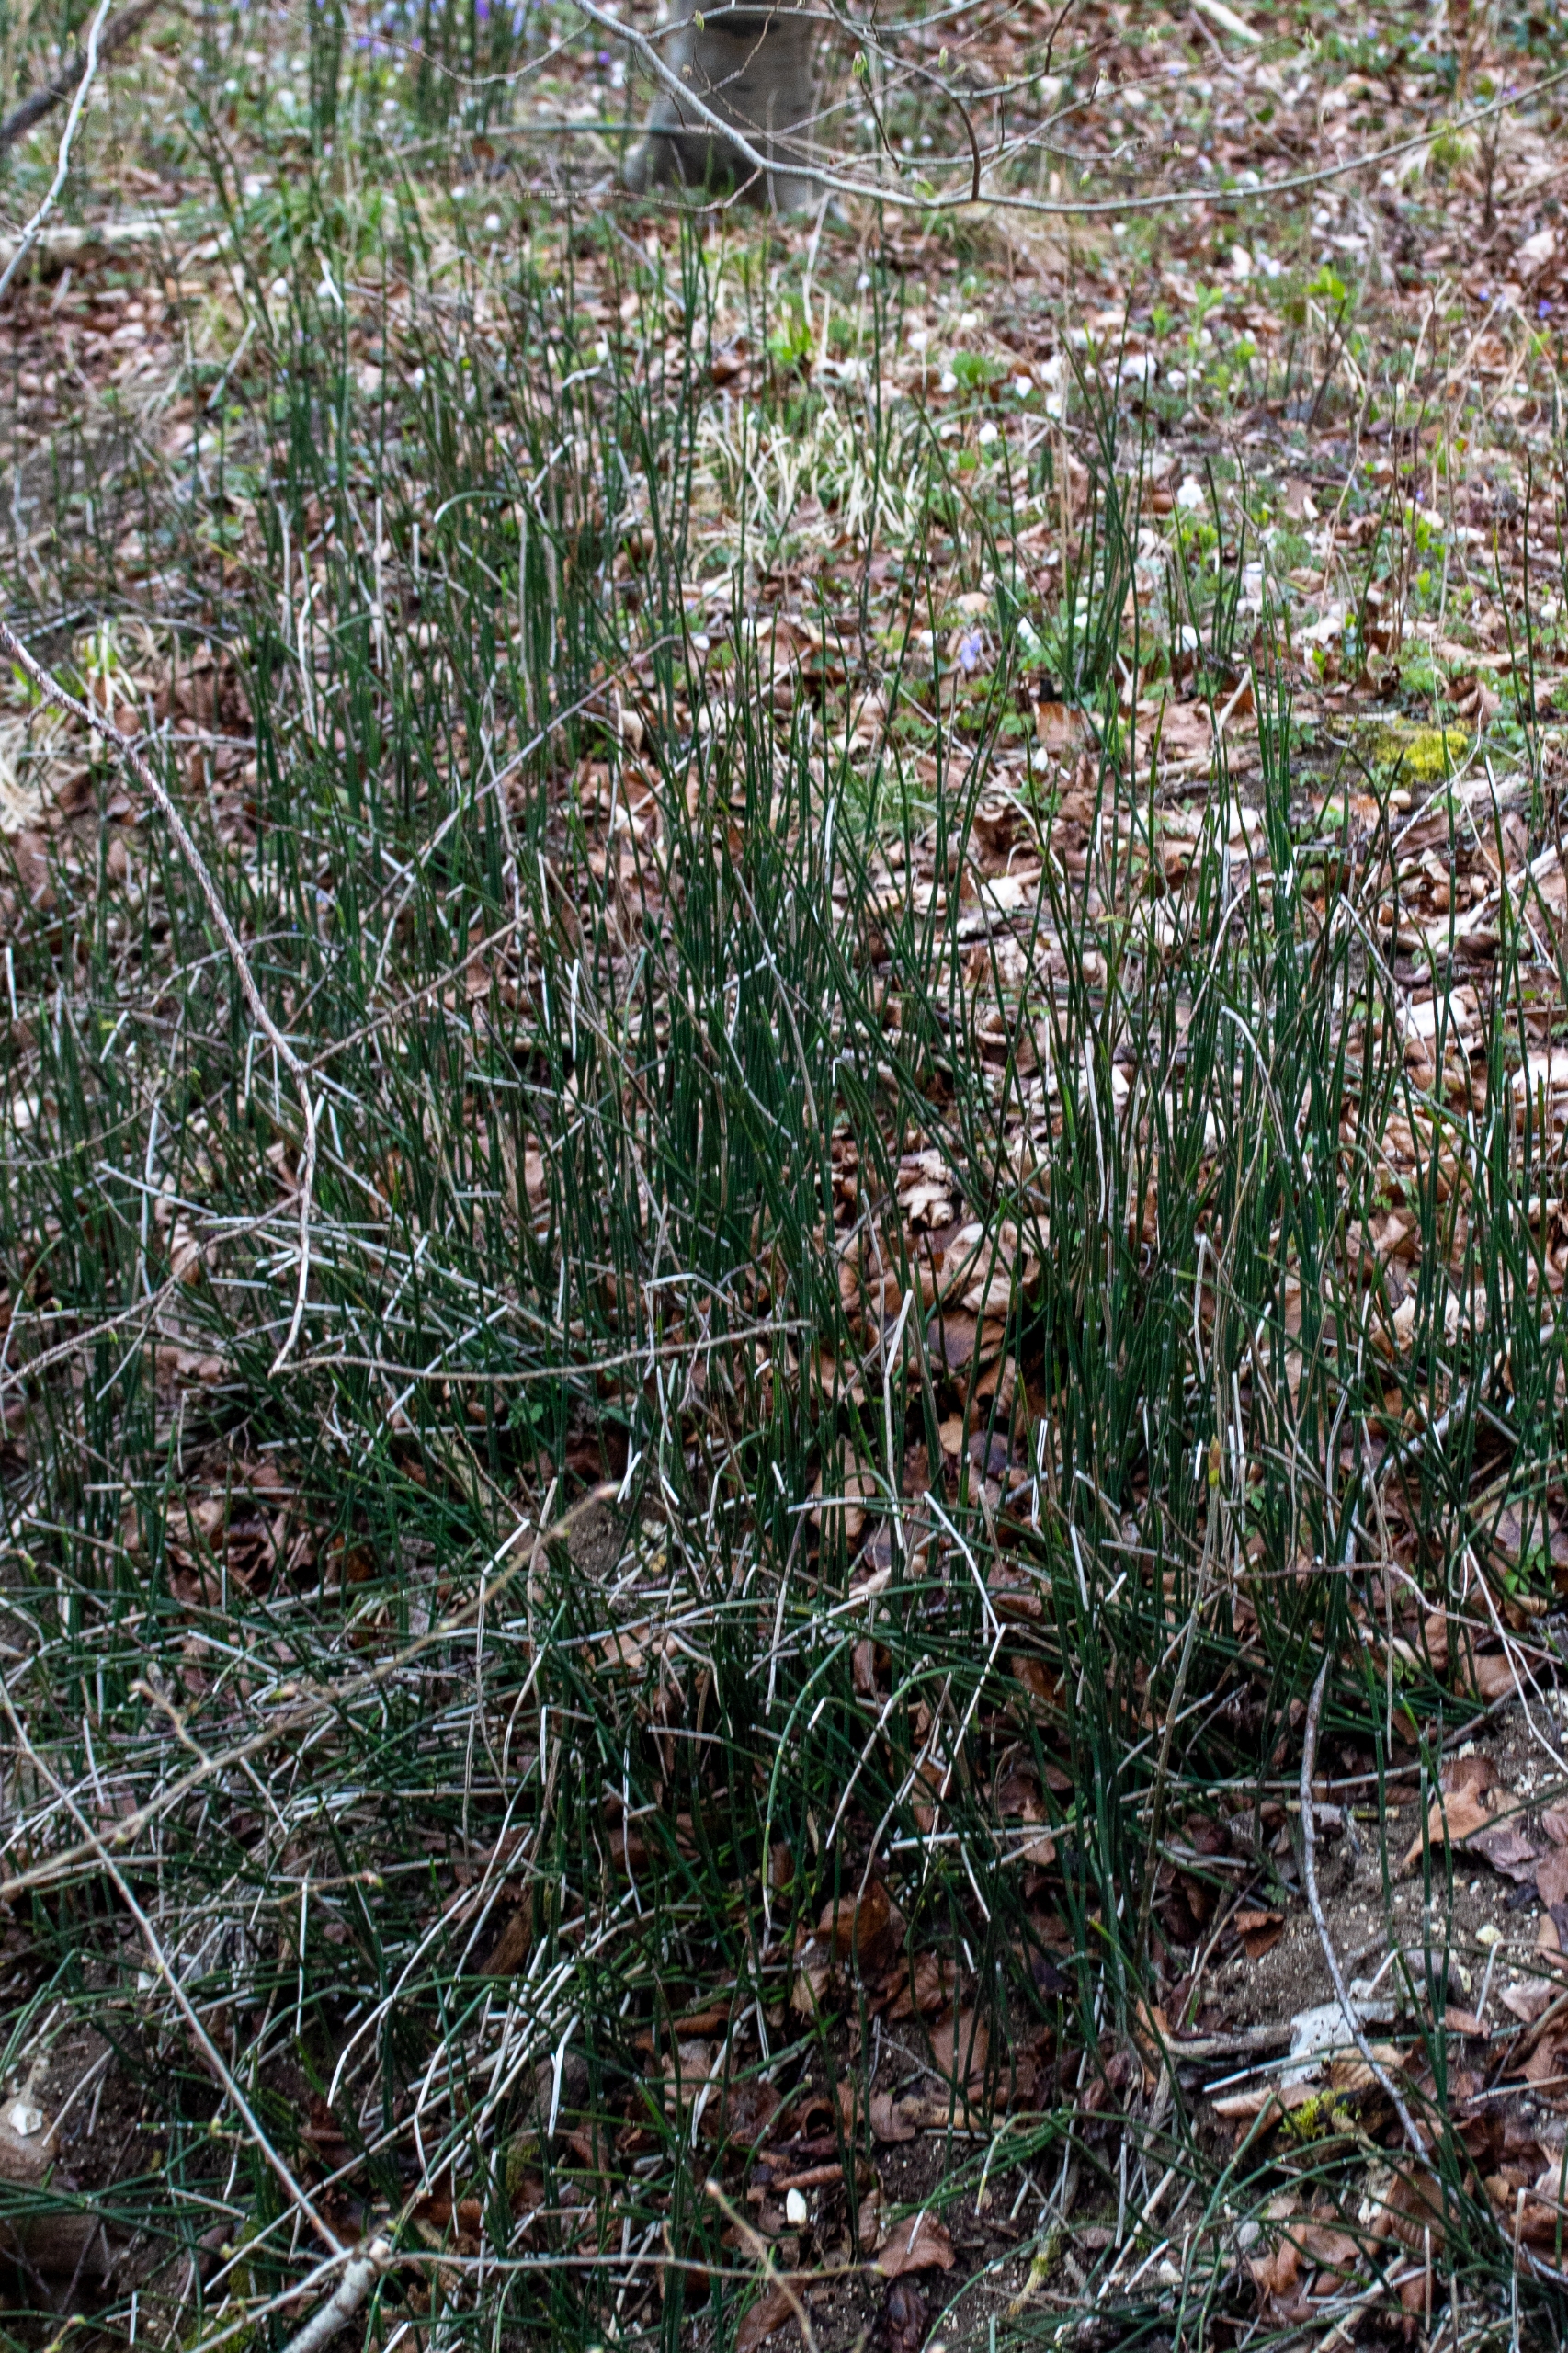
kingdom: Plantae
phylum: Tracheophyta
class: Polypodiopsida
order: Equisetales
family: Equisetaceae
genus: Equisetum
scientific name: Equisetum hyemale
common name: Skavgræs
